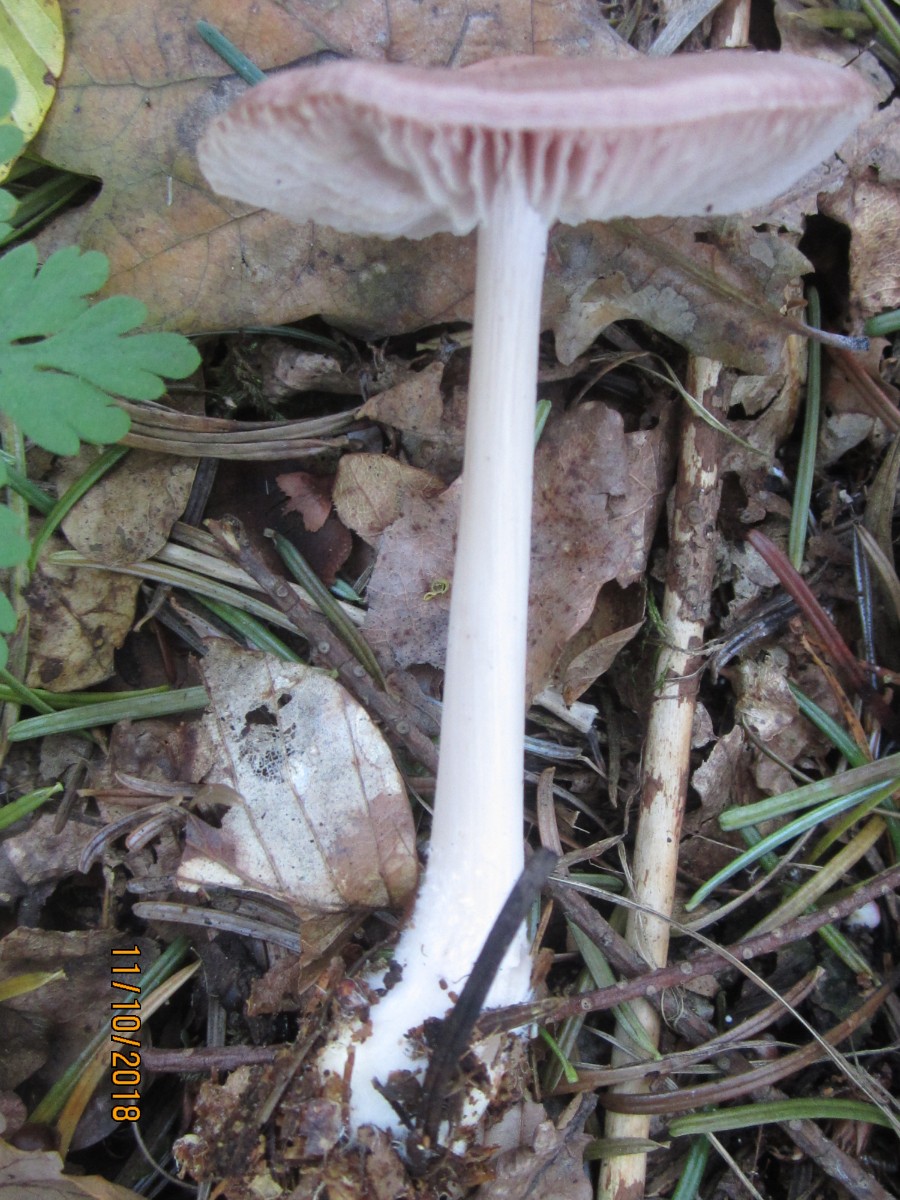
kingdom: Fungi
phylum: Basidiomycota
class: Agaricomycetes
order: Agaricales
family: Mycenaceae
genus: Mycena
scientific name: Mycena rosea
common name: rosa huesvamp
